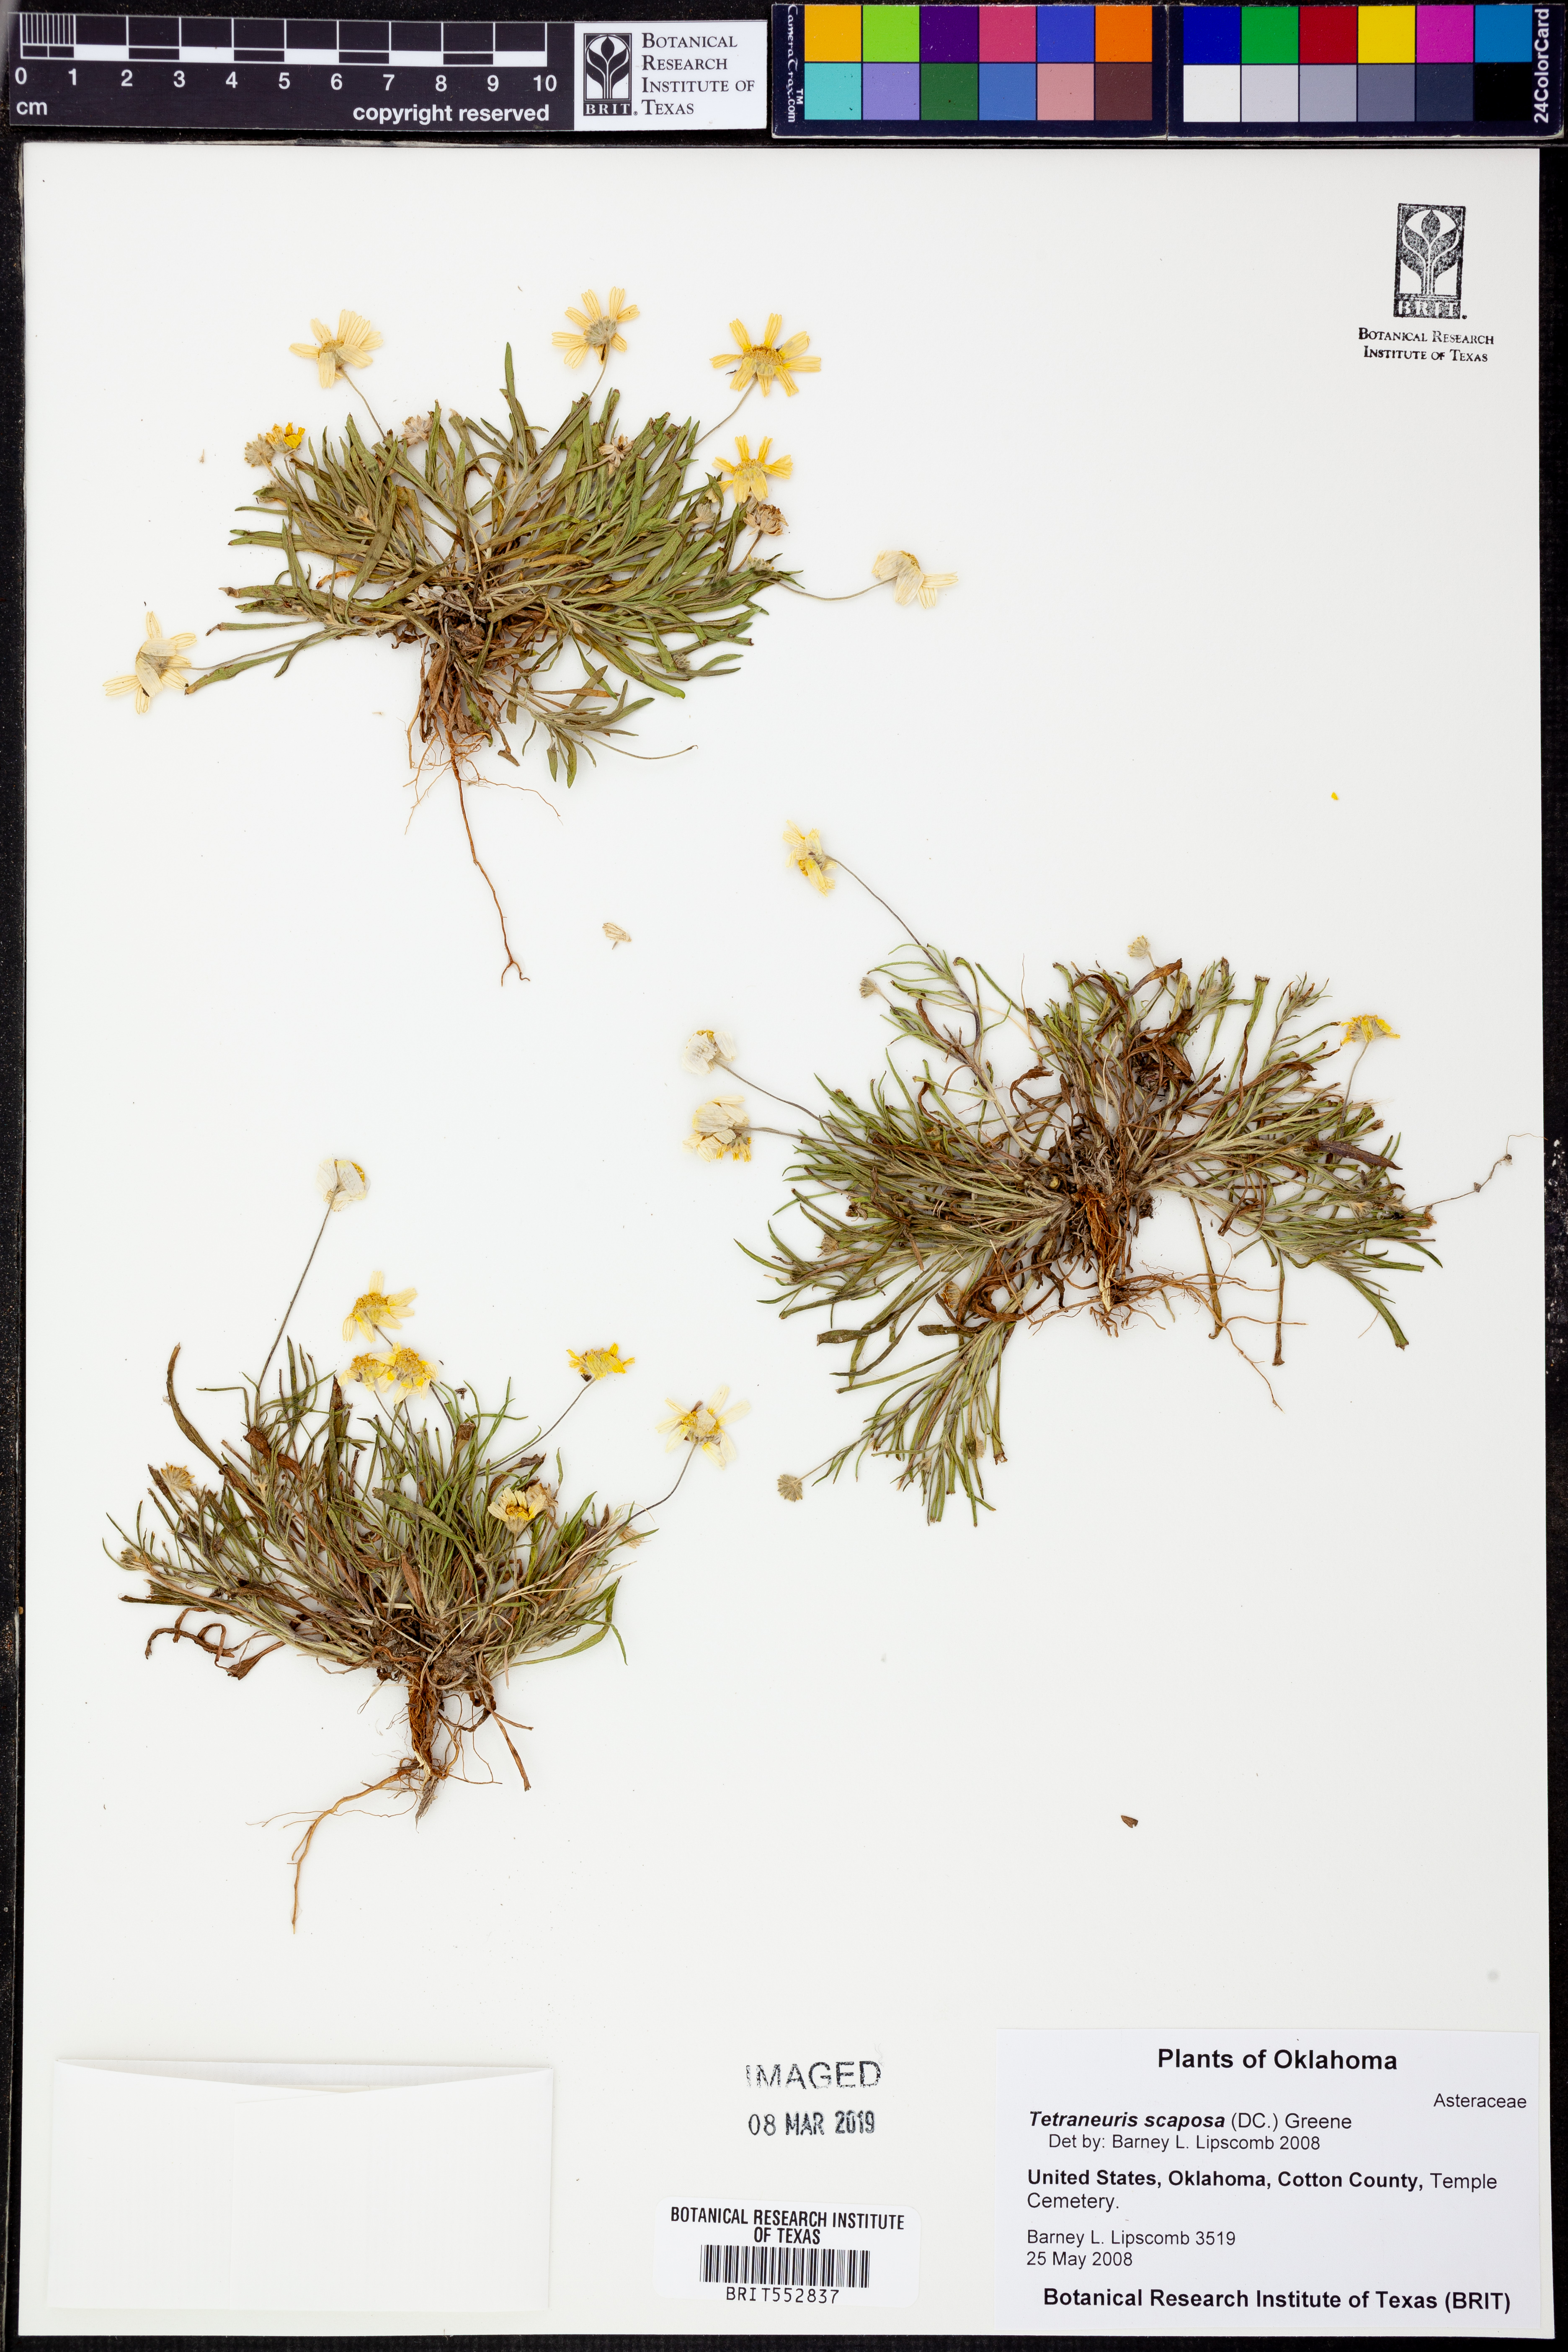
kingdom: Plantae
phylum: Tracheophyta
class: Magnoliopsida
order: Asterales
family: Asteraceae
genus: Tetraneuris
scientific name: Tetraneuris scaposa
